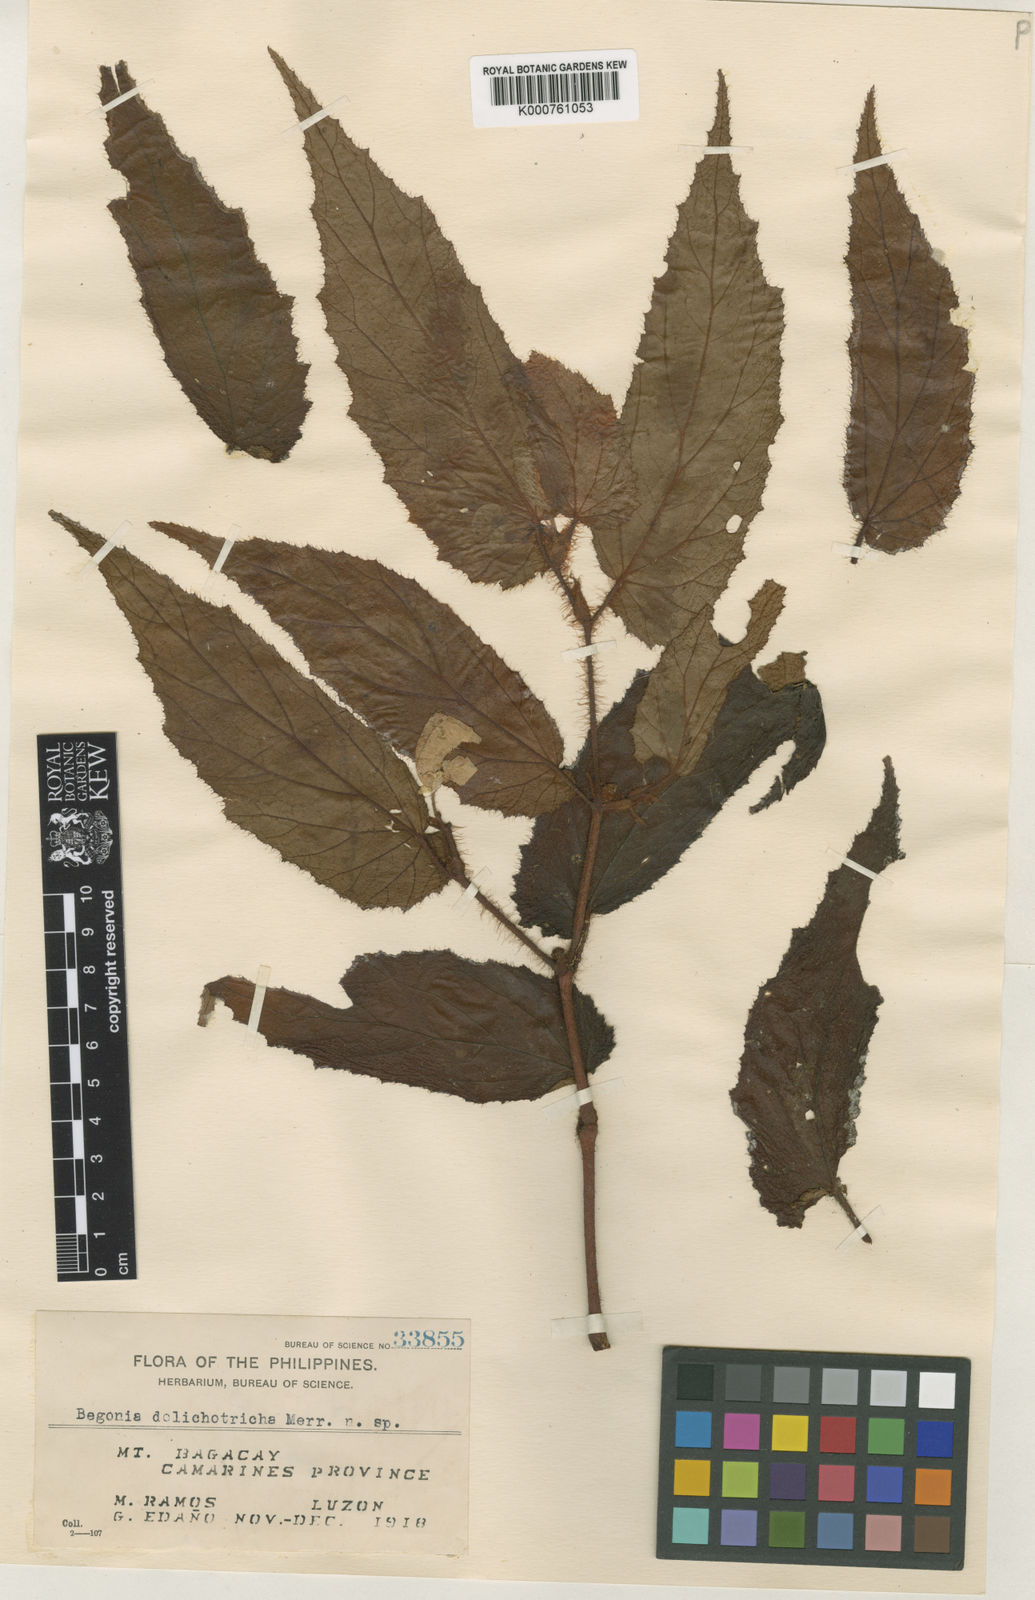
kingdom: Plantae
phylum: Tracheophyta
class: Magnoliopsida
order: Cucurbitales
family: Begoniaceae
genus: Begonia
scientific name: Begonia dolichotricha
